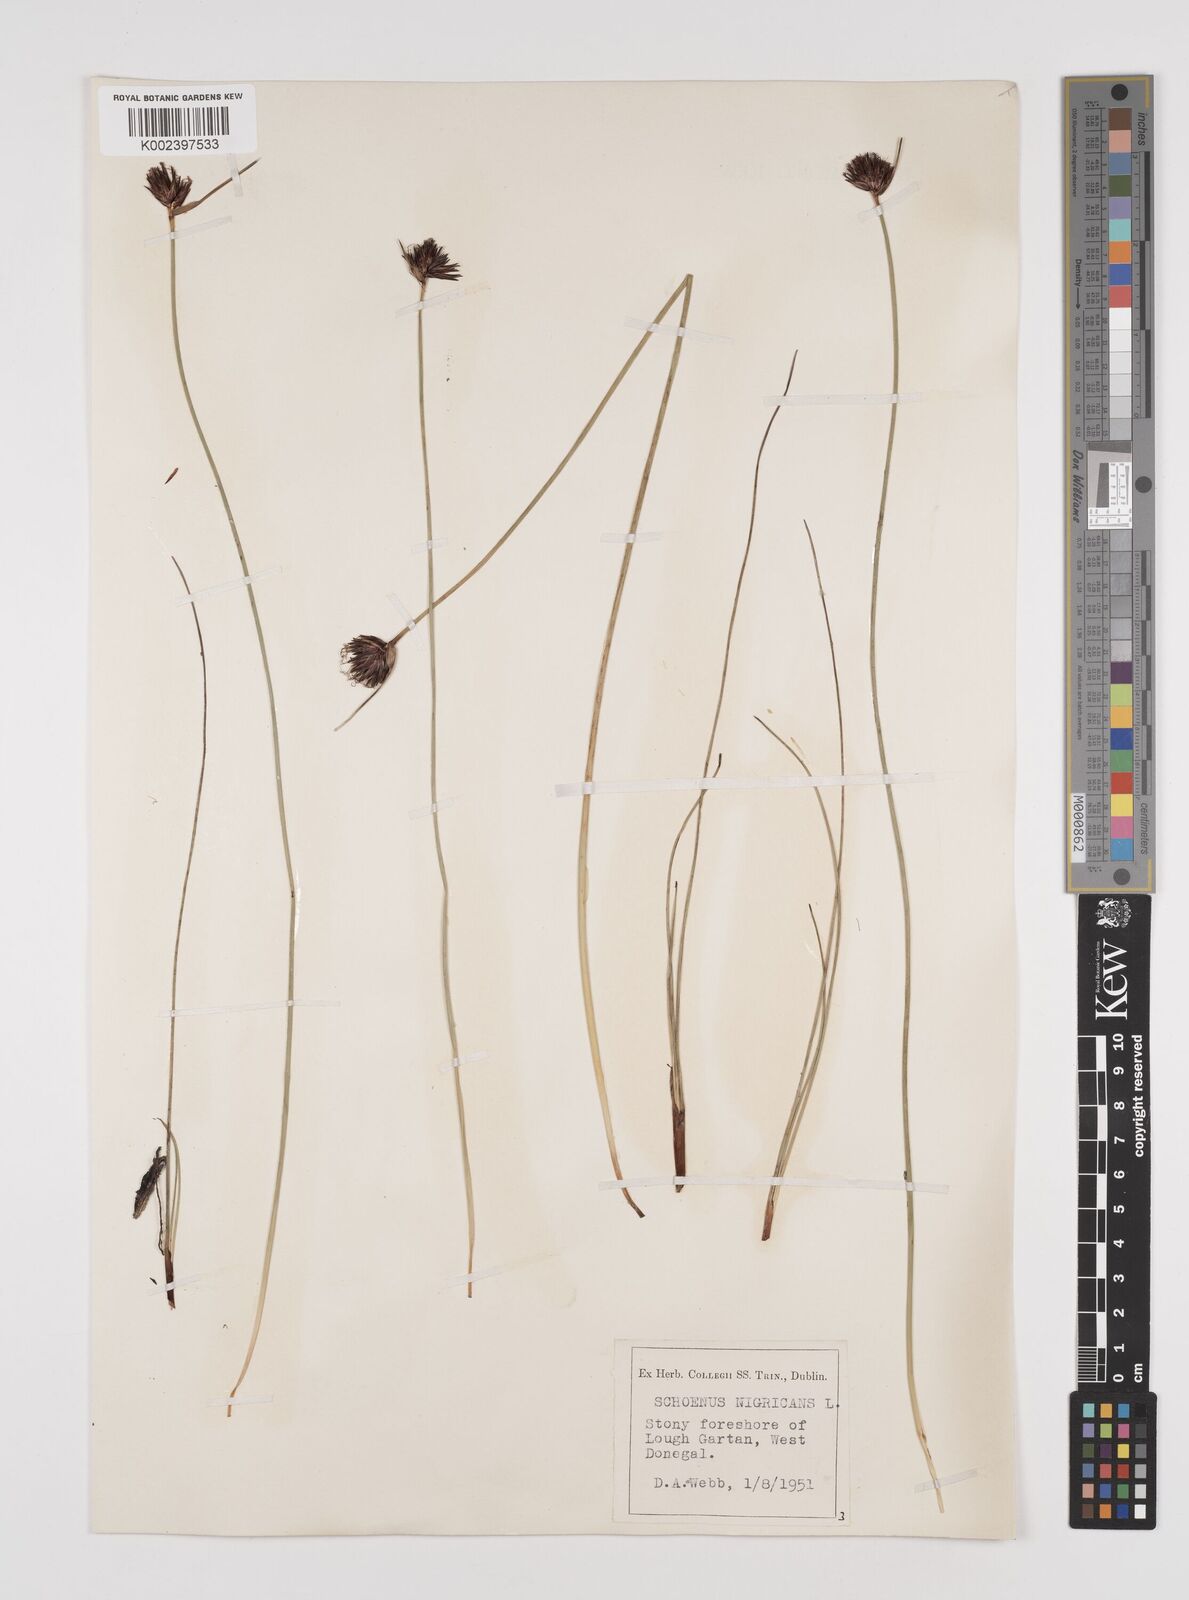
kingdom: Plantae
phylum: Tracheophyta
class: Liliopsida
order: Poales
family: Cyperaceae
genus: Schoenus
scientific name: Schoenus nigricans
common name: Black bog-rush
